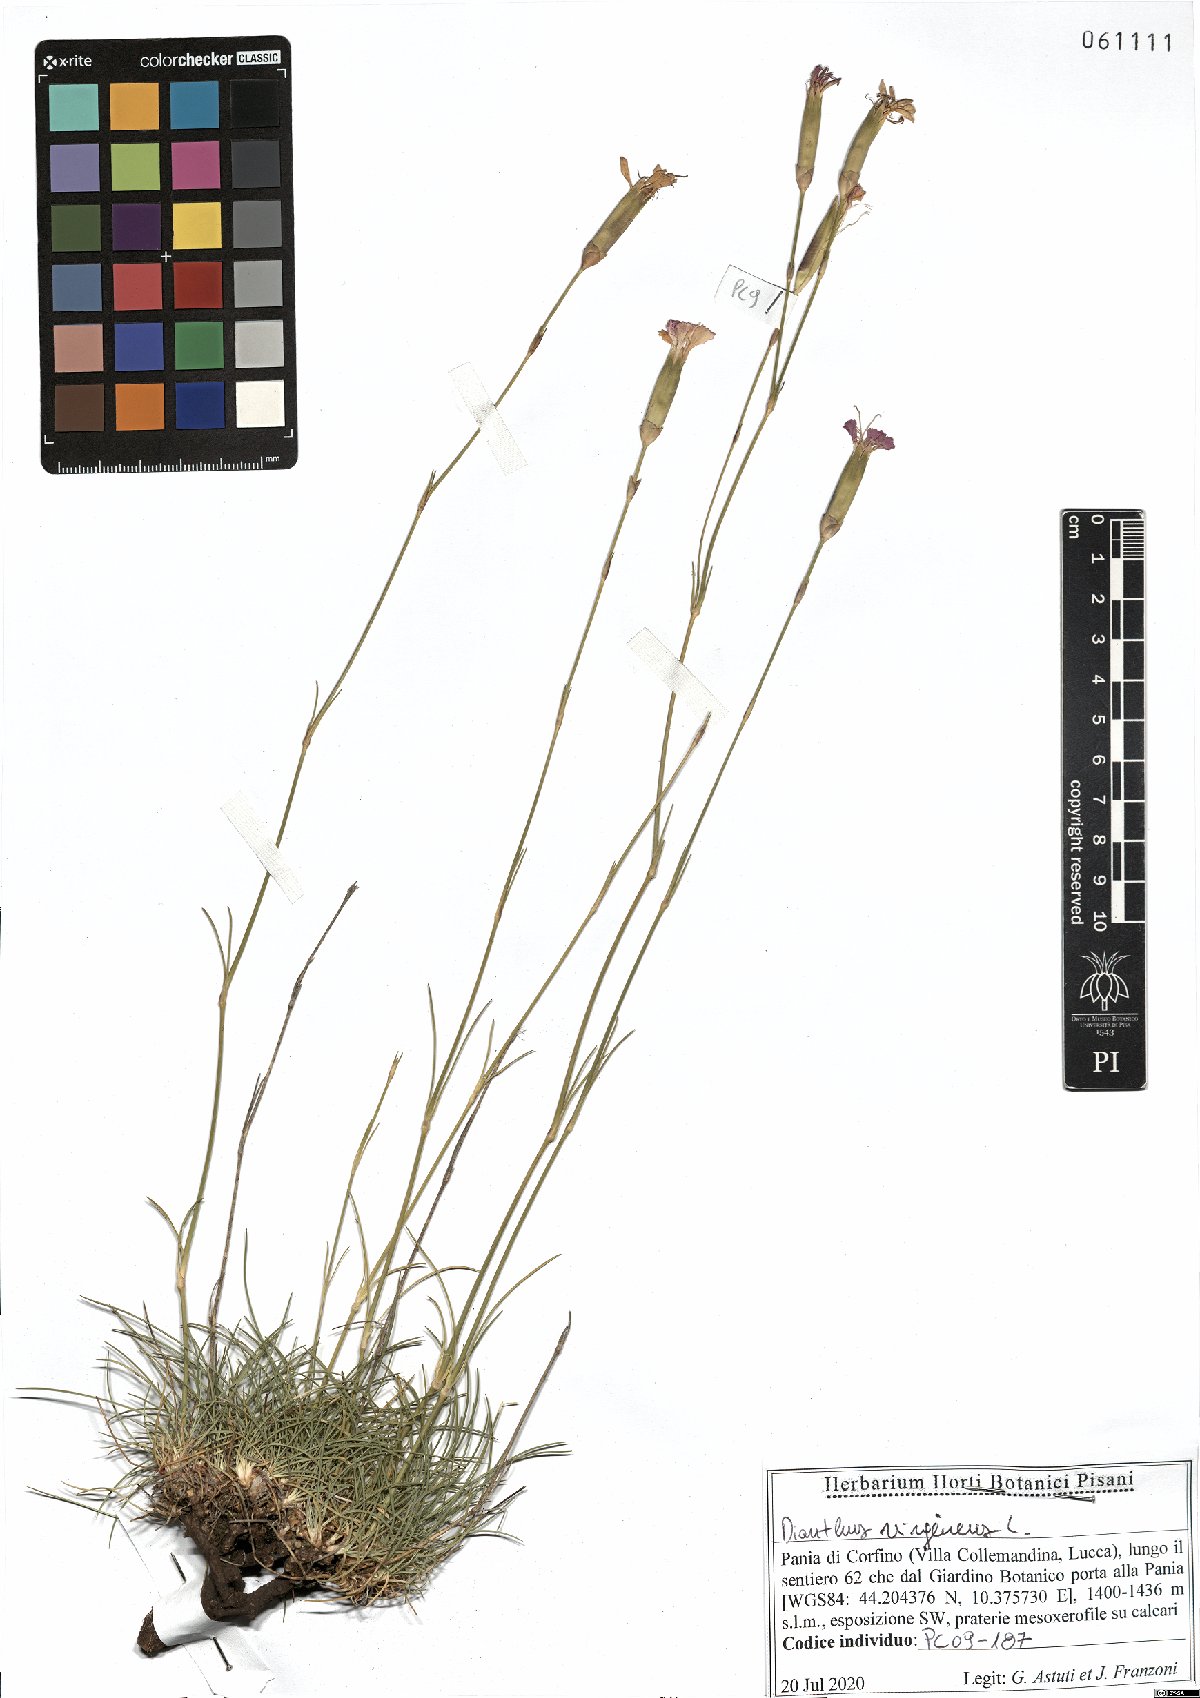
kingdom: Plantae
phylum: Tracheophyta
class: Magnoliopsida
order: Caryophyllales
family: Caryophyllaceae
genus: Dianthus
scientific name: Dianthus virgineus
